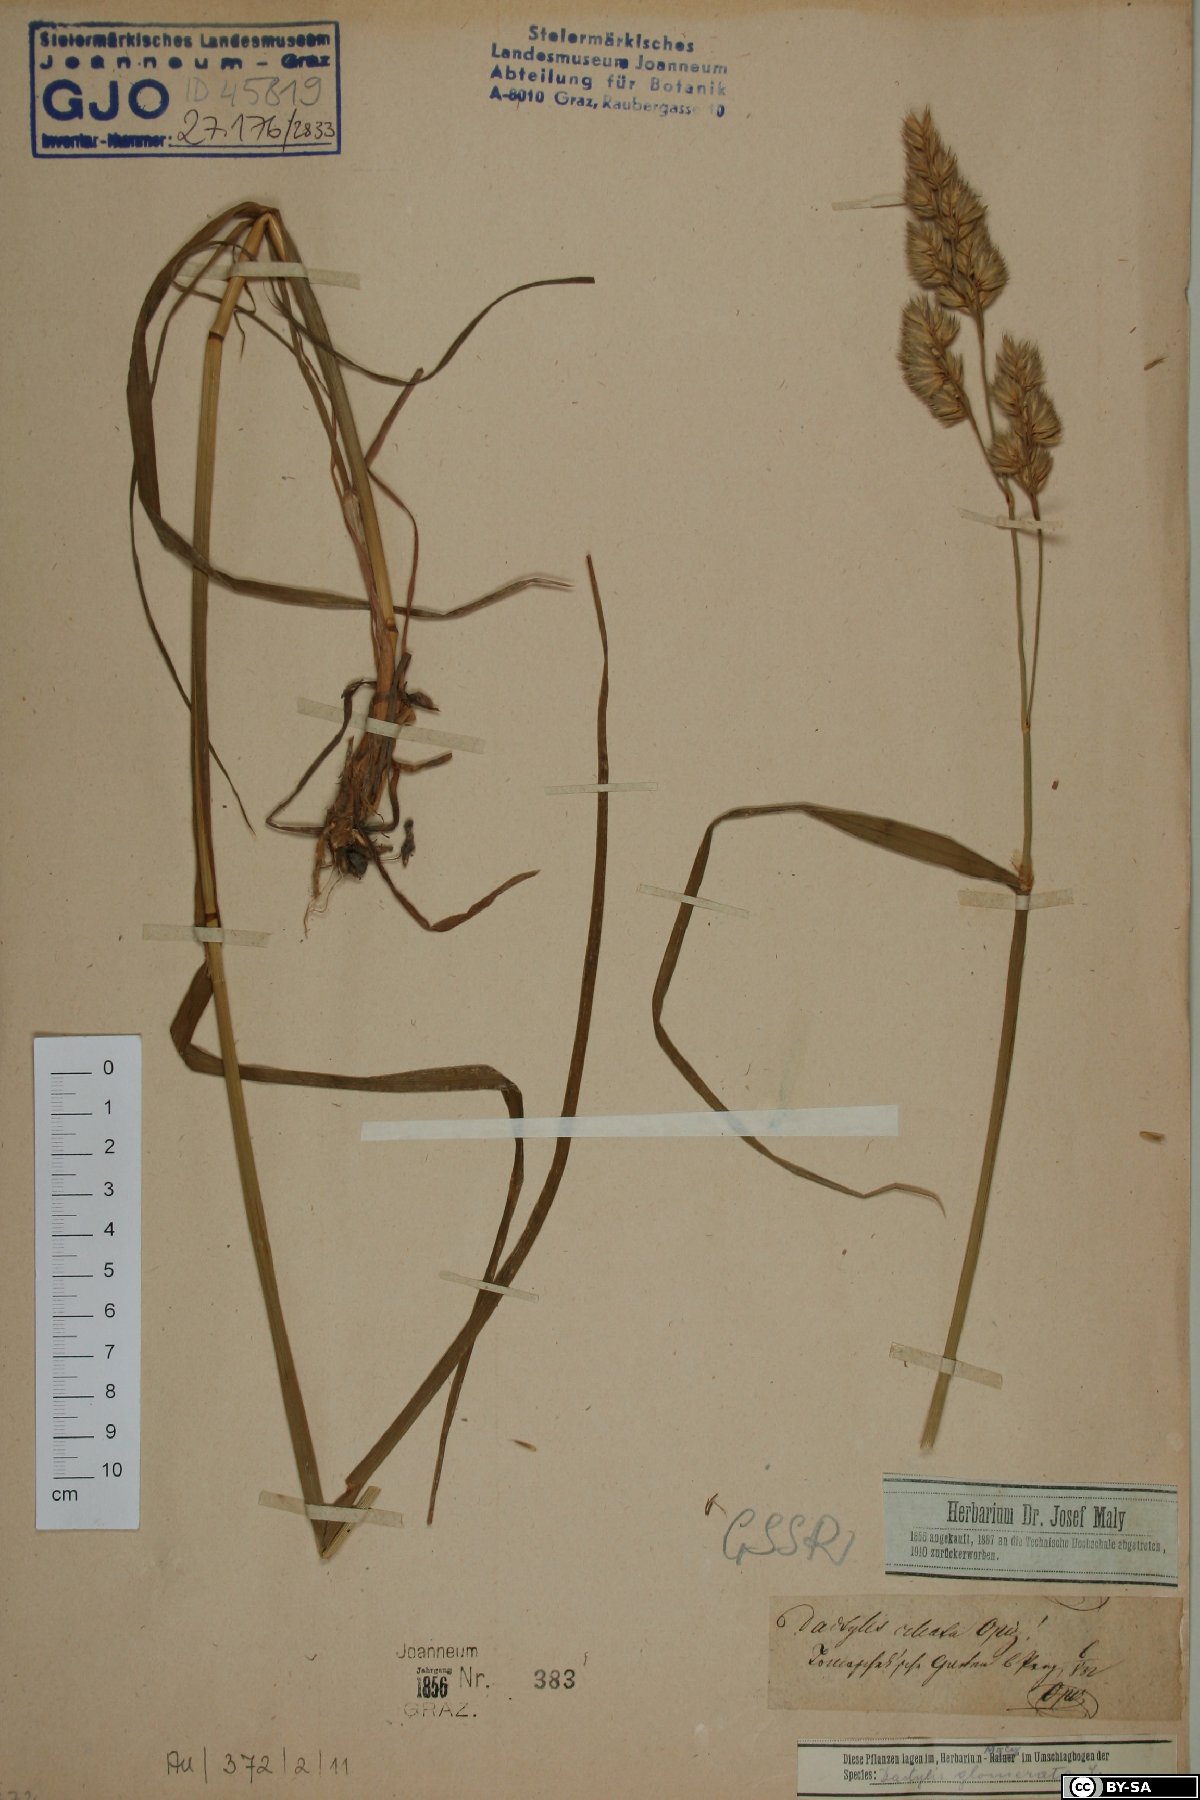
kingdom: Plantae
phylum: Tracheophyta
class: Liliopsida
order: Poales
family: Poaceae
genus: Dactylis
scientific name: Dactylis glomerata
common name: Orchardgrass
